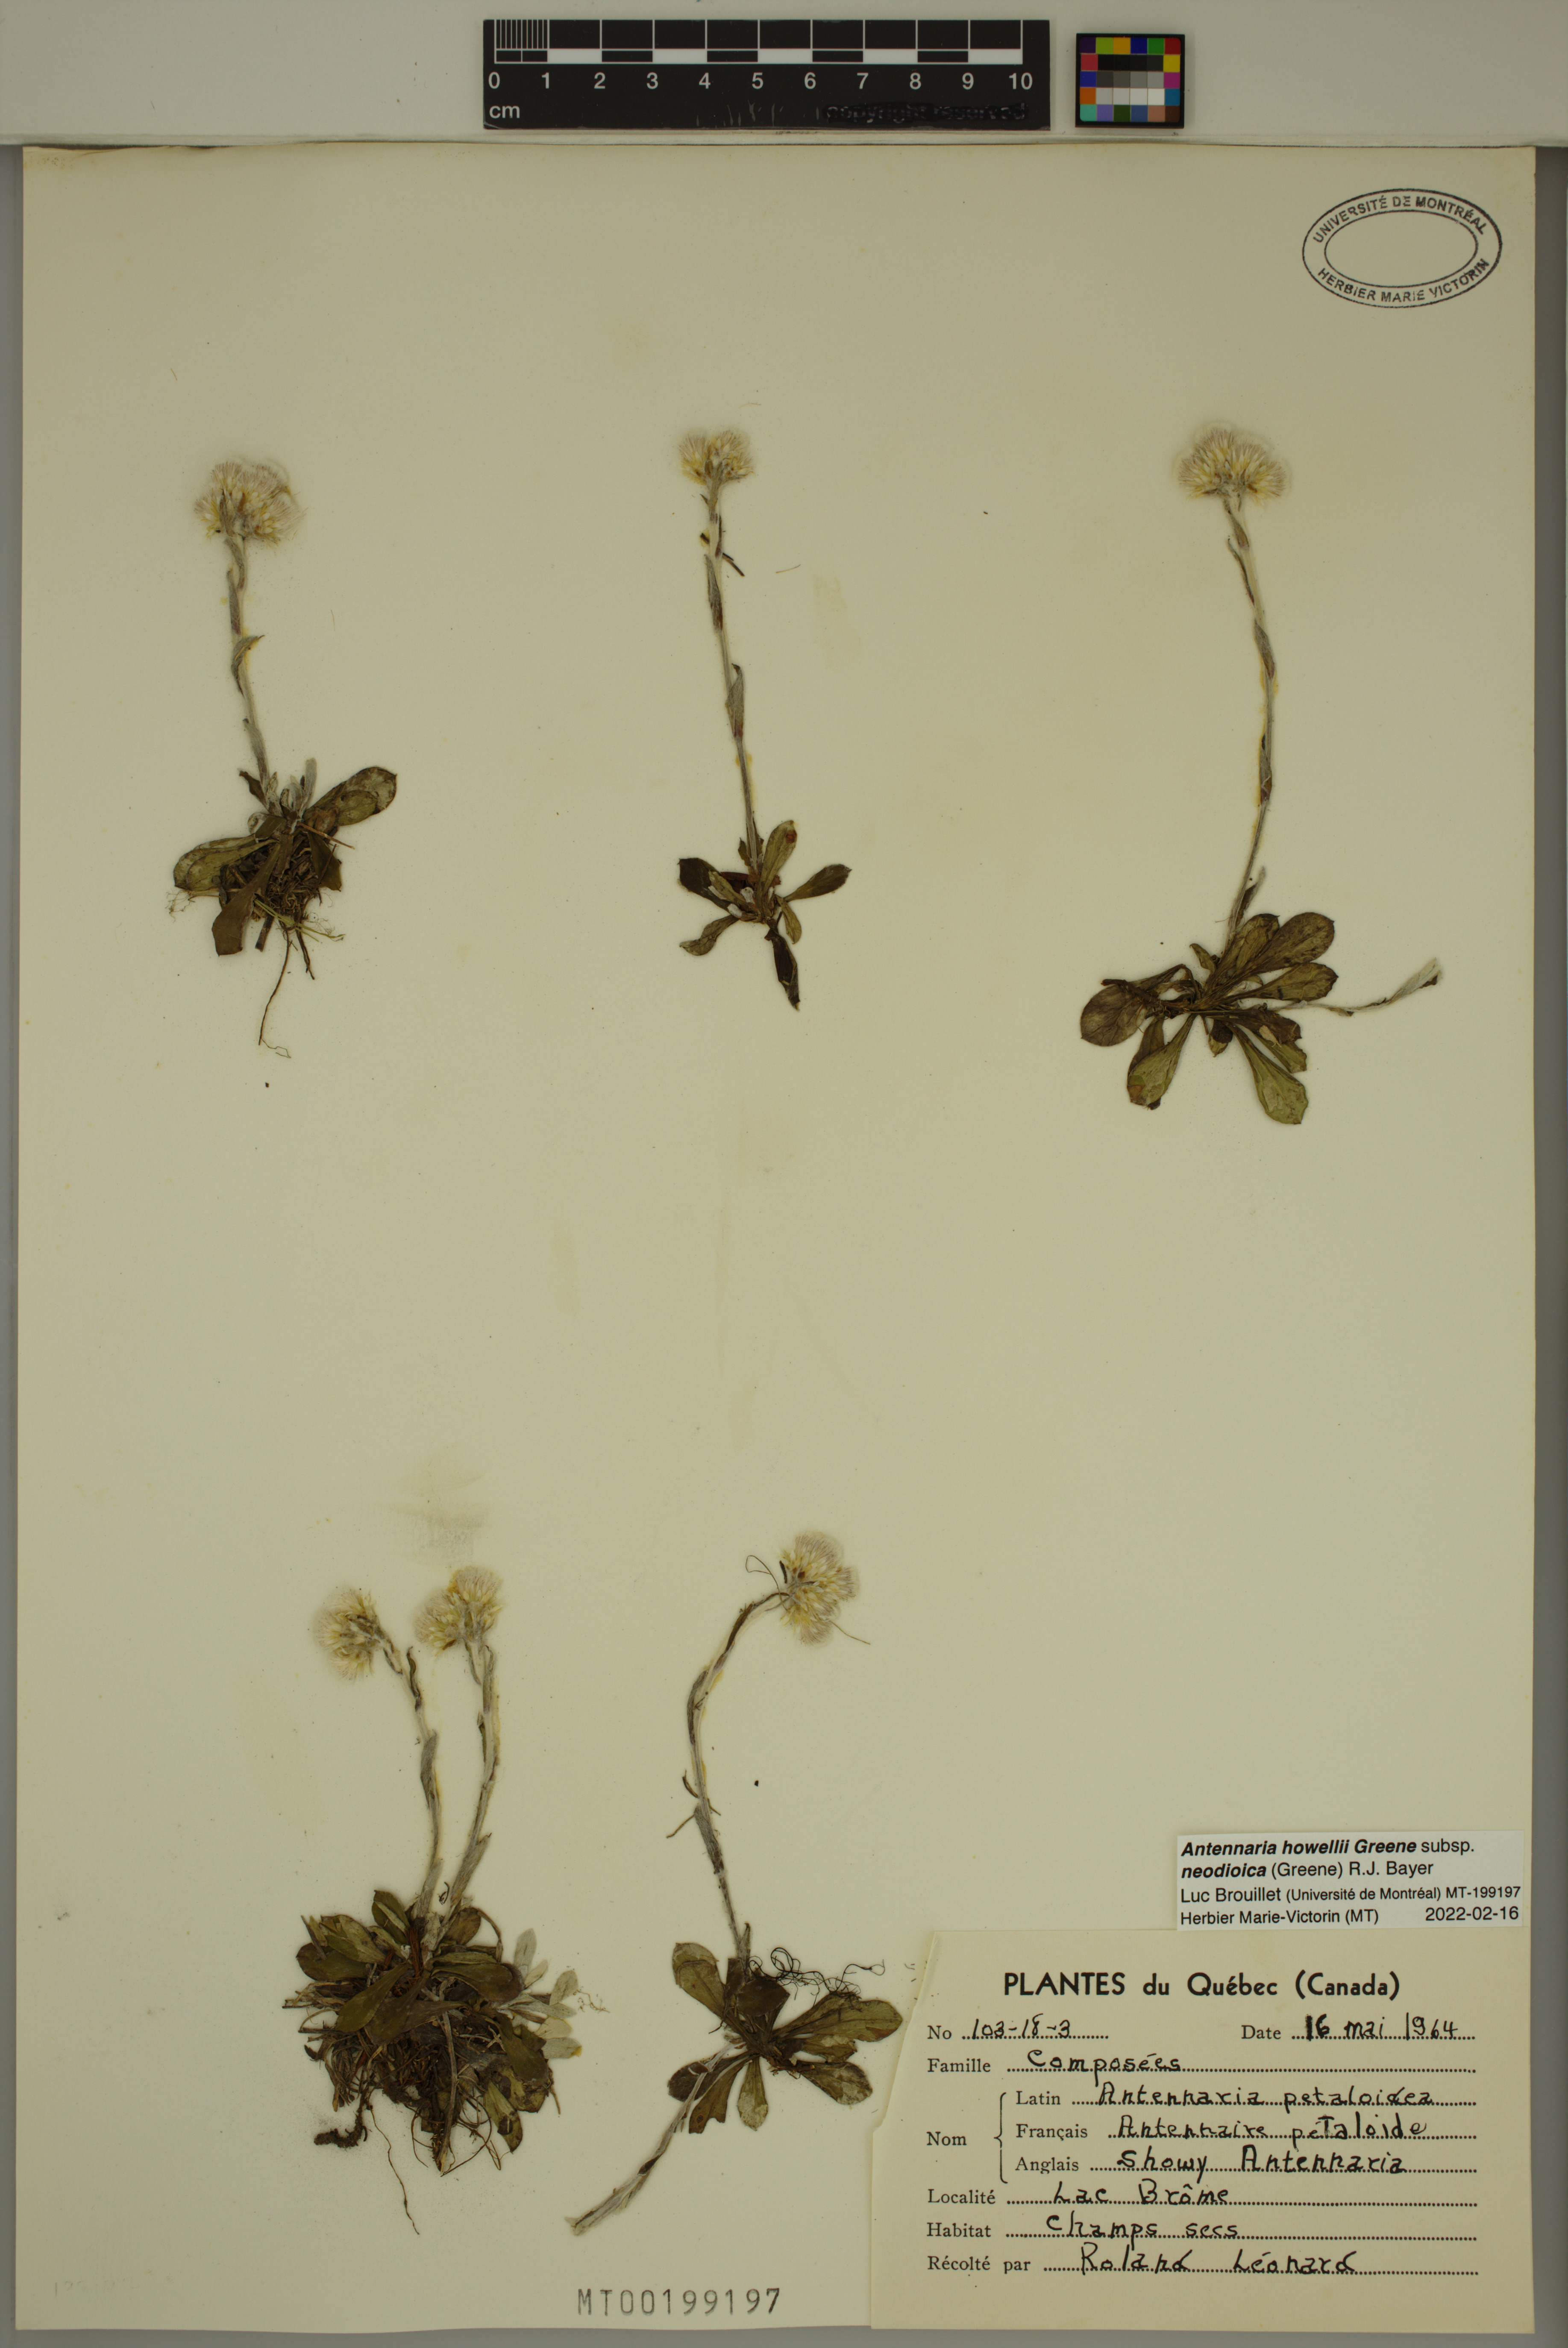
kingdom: Plantae
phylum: Tracheophyta
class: Magnoliopsida
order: Asterales
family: Asteraceae
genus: Antennaria
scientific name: Antennaria howellii
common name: Howell's pussytoes
